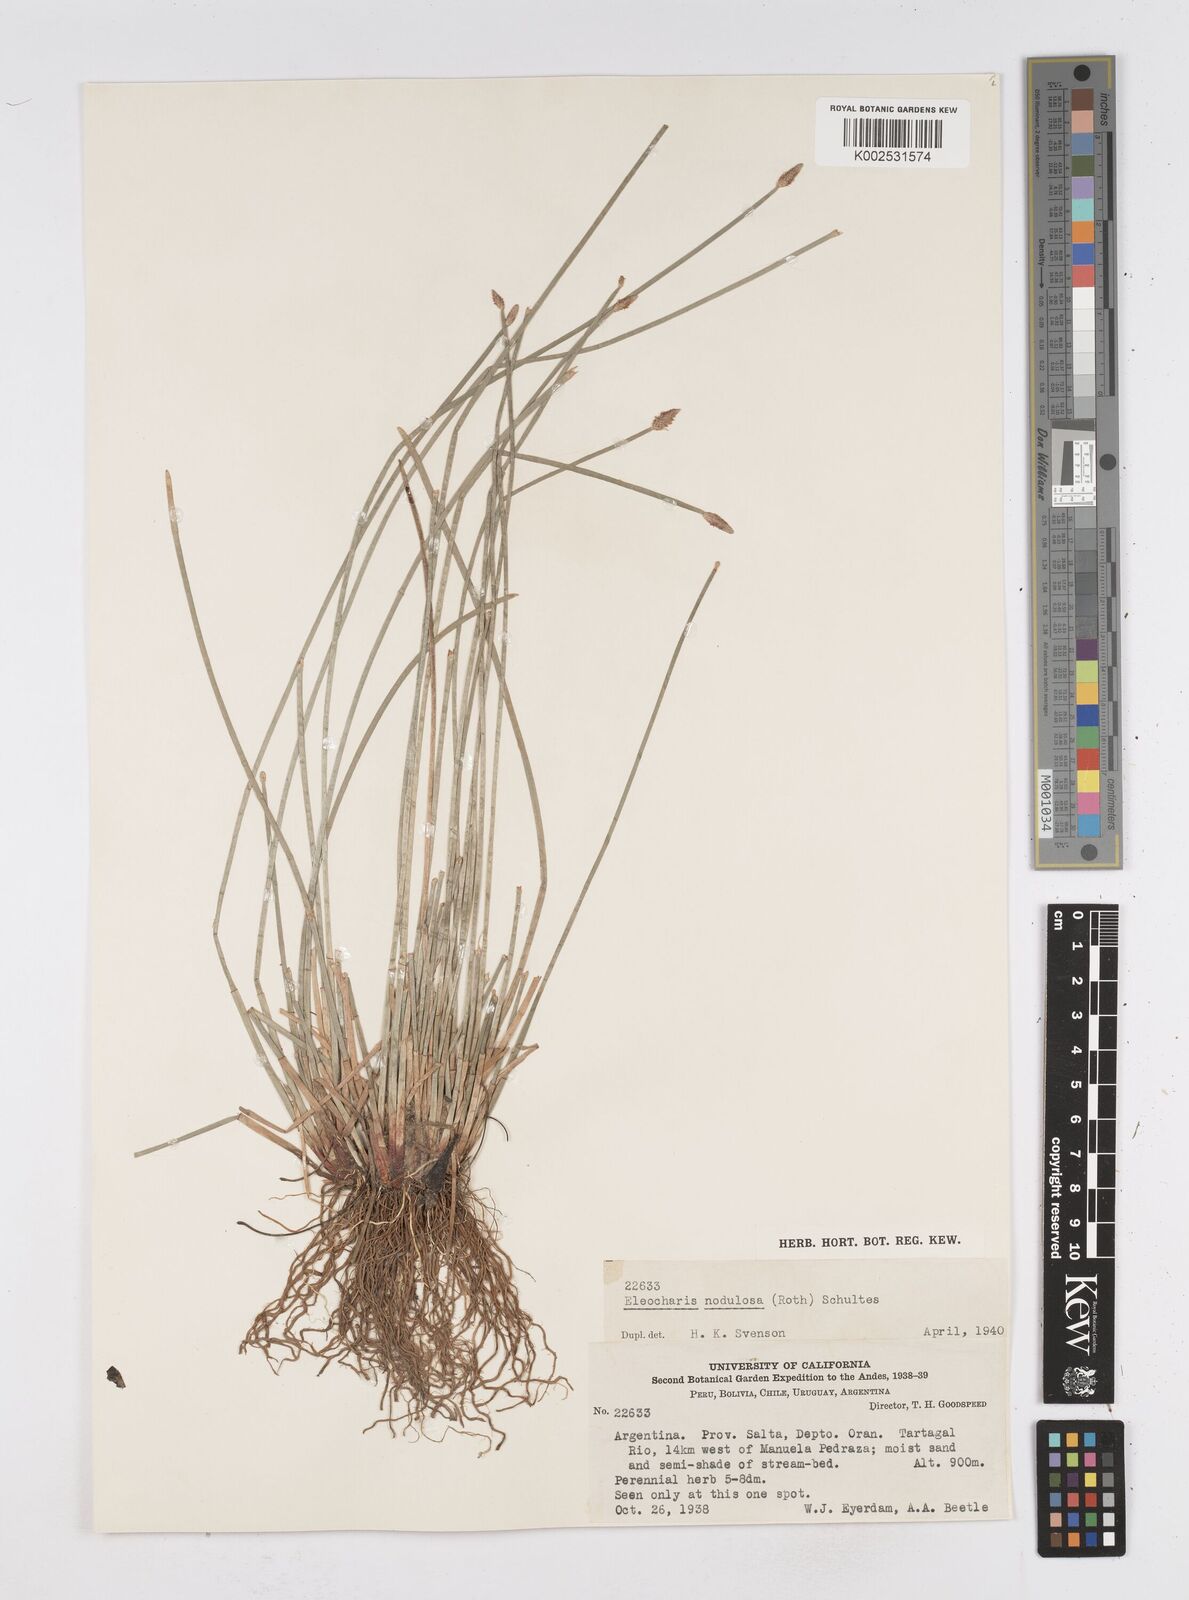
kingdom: Plantae
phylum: Tracheophyta
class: Liliopsida
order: Poales
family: Cyperaceae
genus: Eleocharis
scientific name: Eleocharis montana
